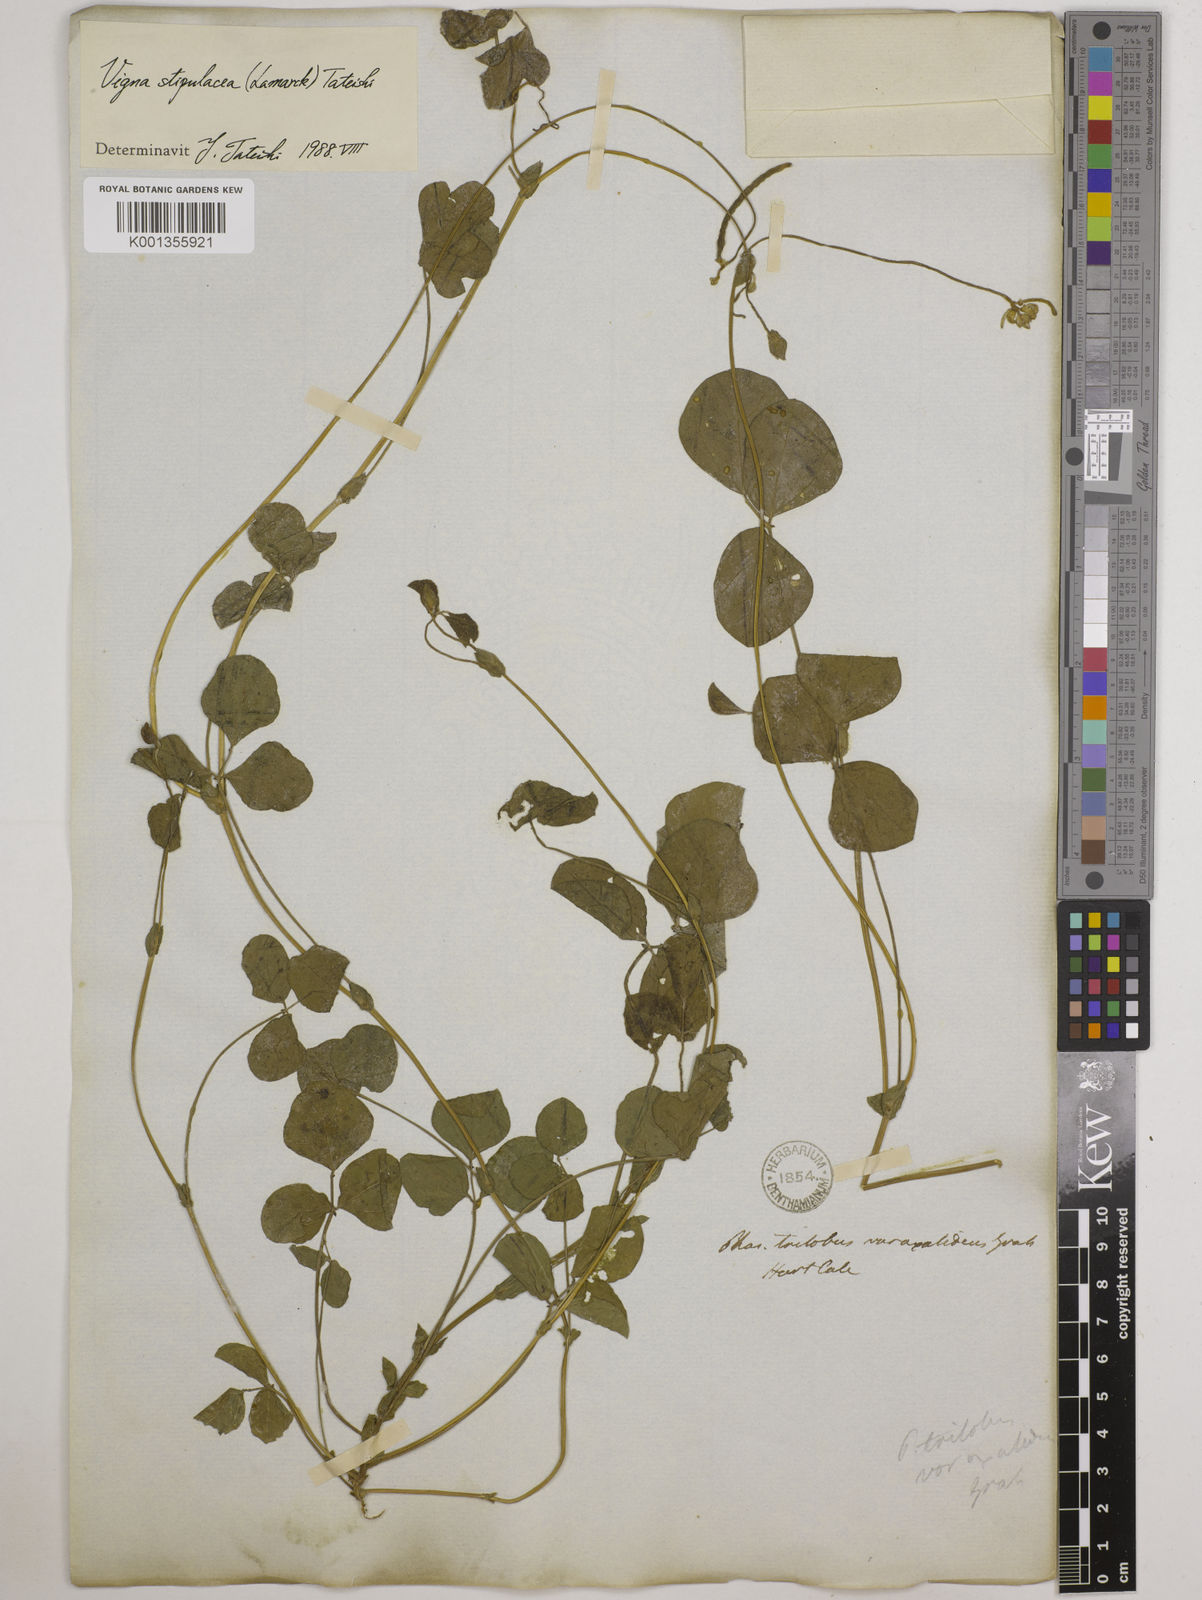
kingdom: Plantae
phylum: Tracheophyta
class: Magnoliopsida
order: Fabales
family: Fabaceae
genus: Pueraria
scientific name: Pueraria montana
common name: Kudzu
